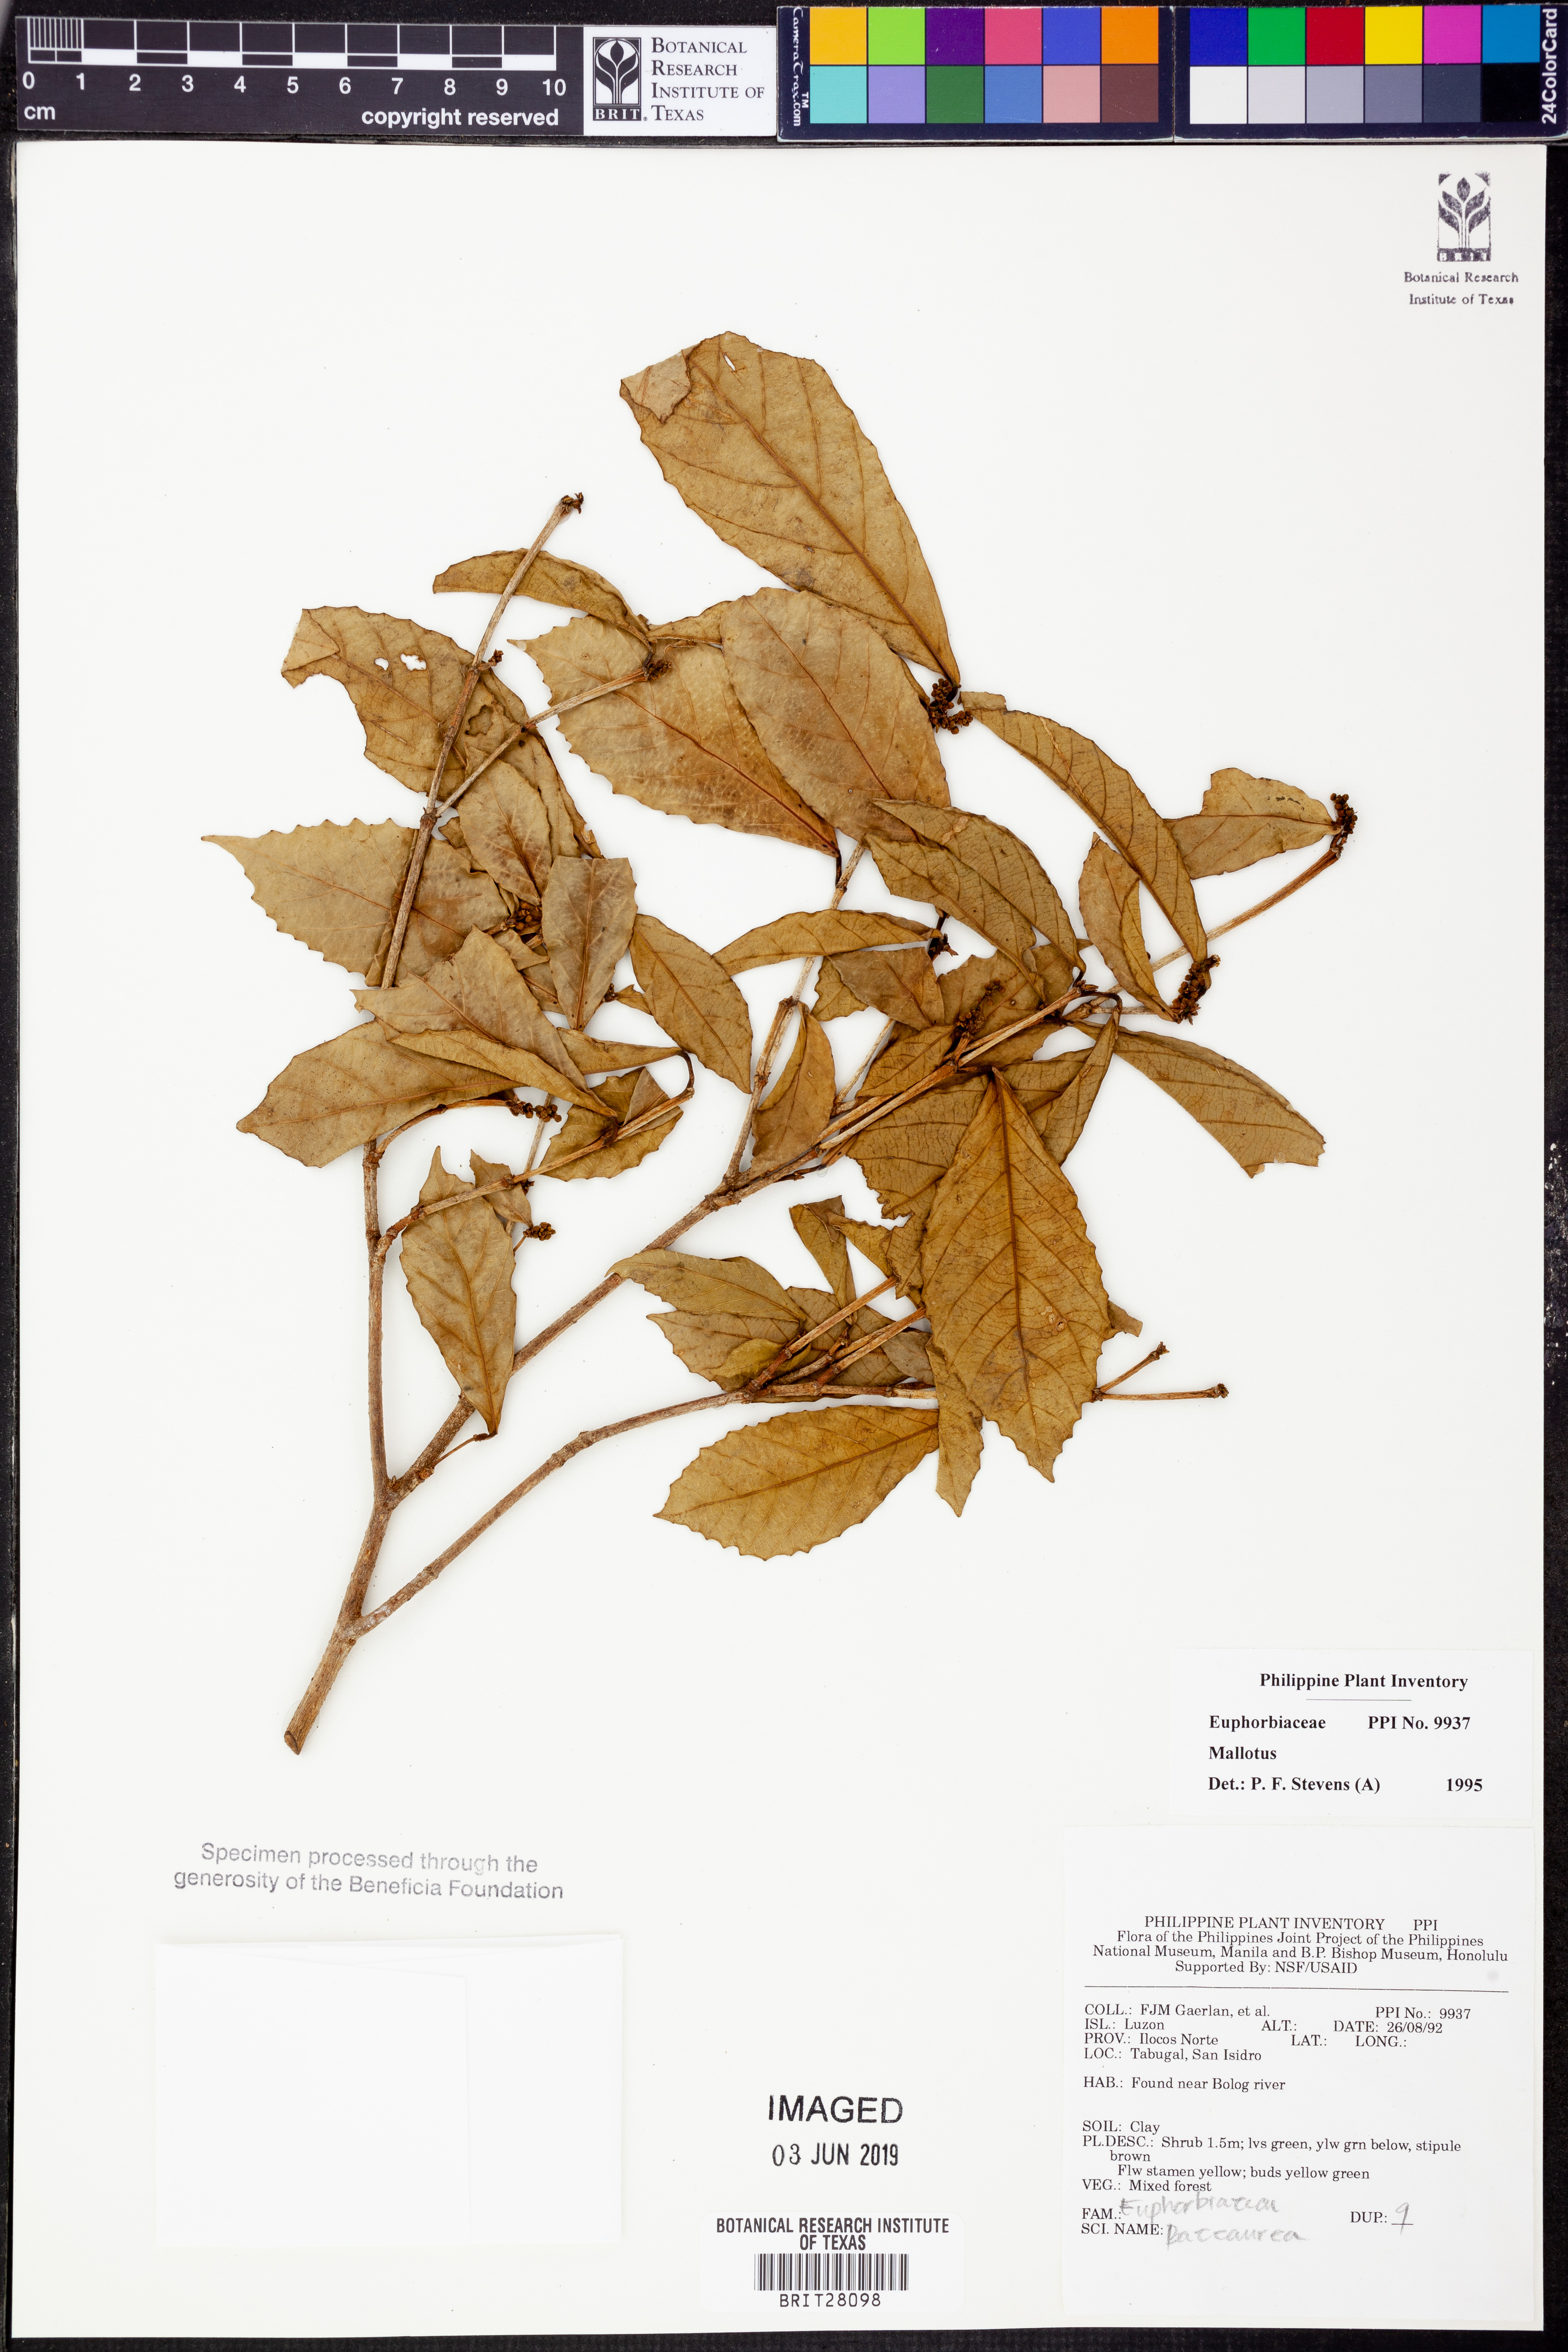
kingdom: Plantae
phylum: Tracheophyta
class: Magnoliopsida
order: Malpighiales
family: Euphorbiaceae
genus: Mallotus
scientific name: Mallotus
